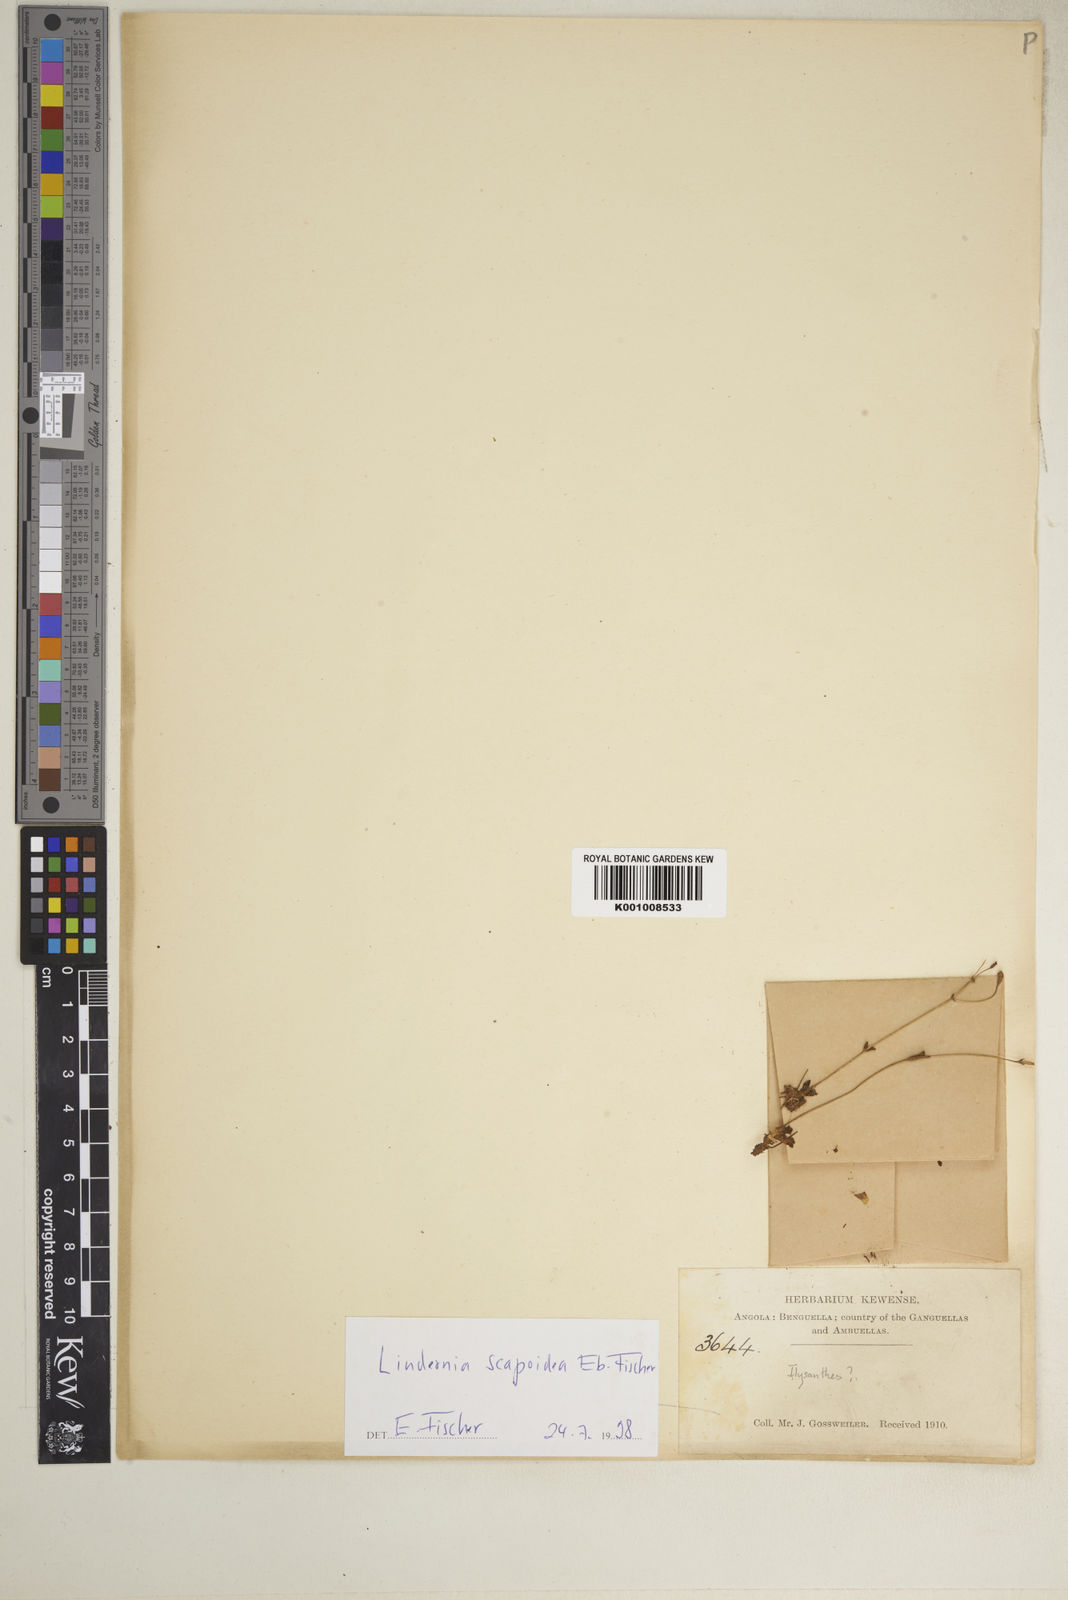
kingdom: Plantae
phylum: Tracheophyta
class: Magnoliopsida
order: Lamiales
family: Linderniaceae
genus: Craterostigma
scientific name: Craterostigma gossweileri
